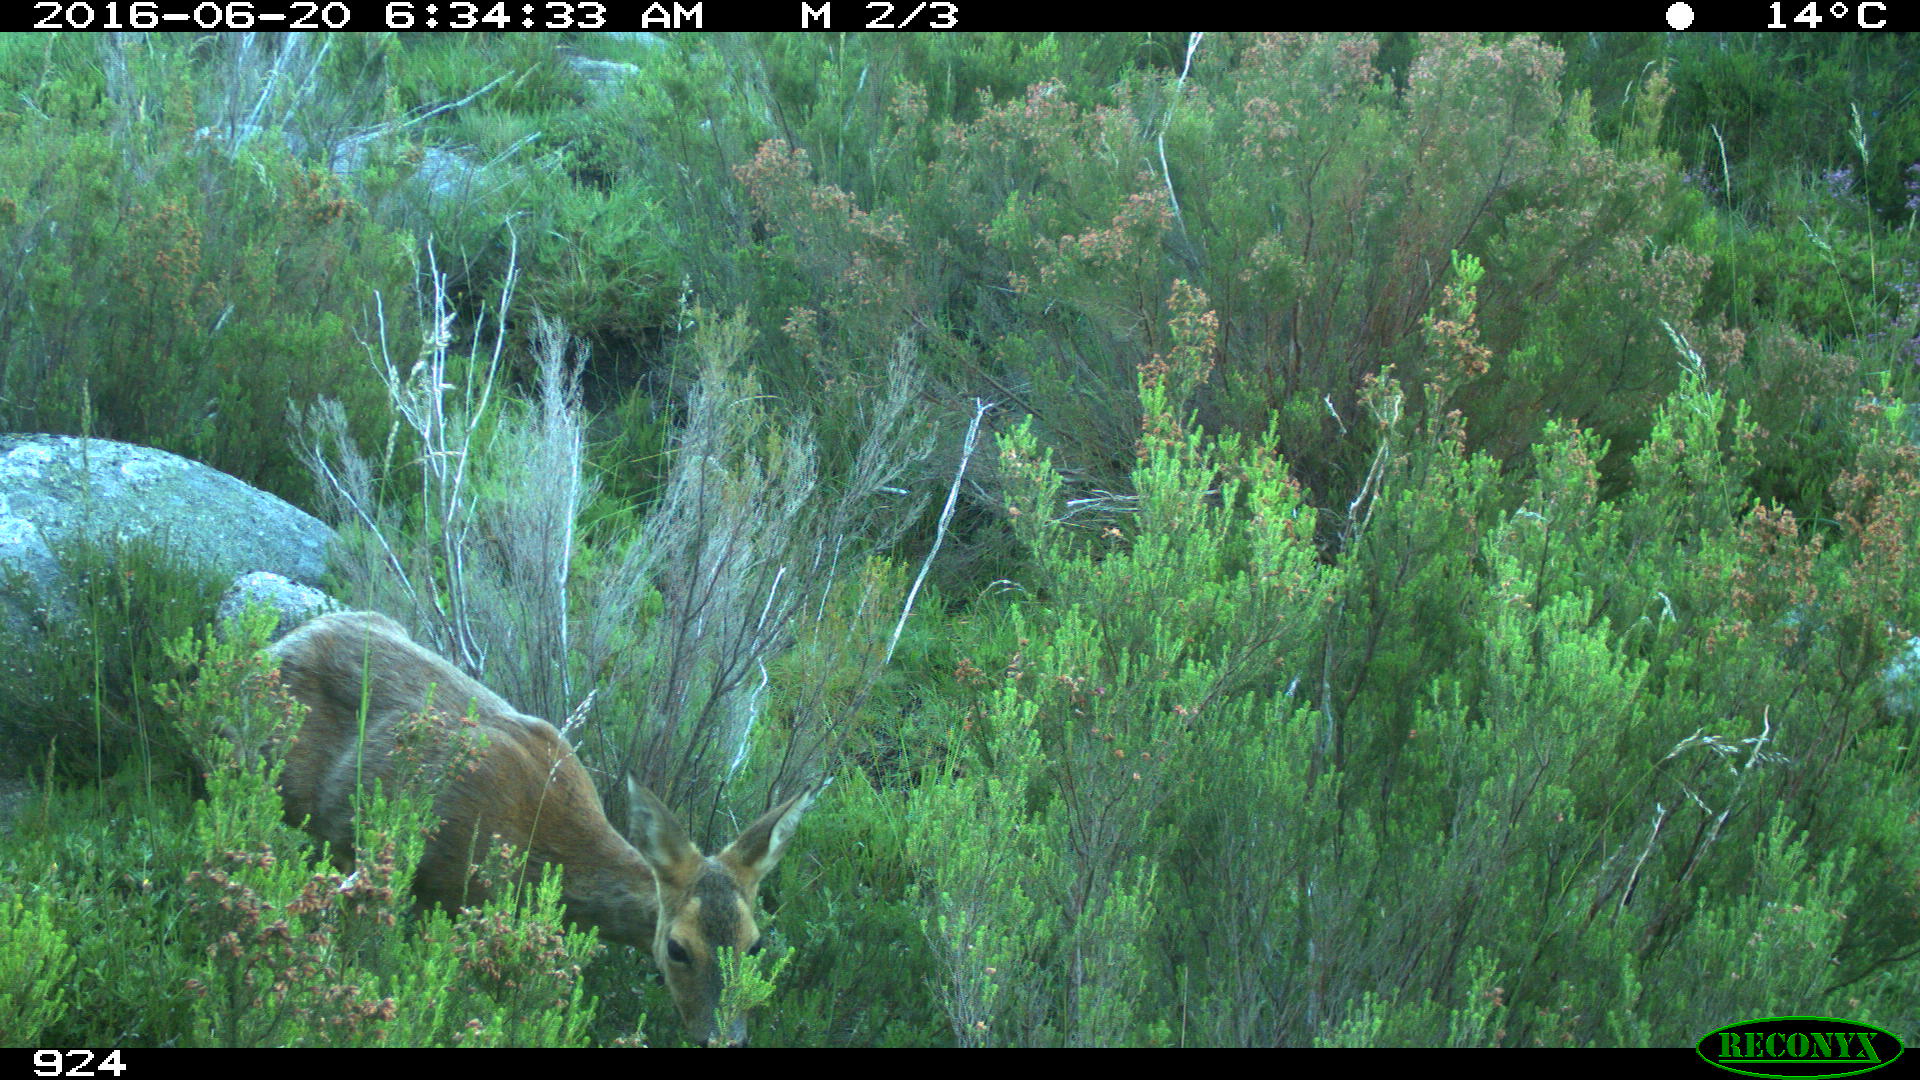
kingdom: Animalia
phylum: Chordata
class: Mammalia
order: Artiodactyla
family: Cervidae
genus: Capreolus
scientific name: Capreolus capreolus
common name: Western roe deer
